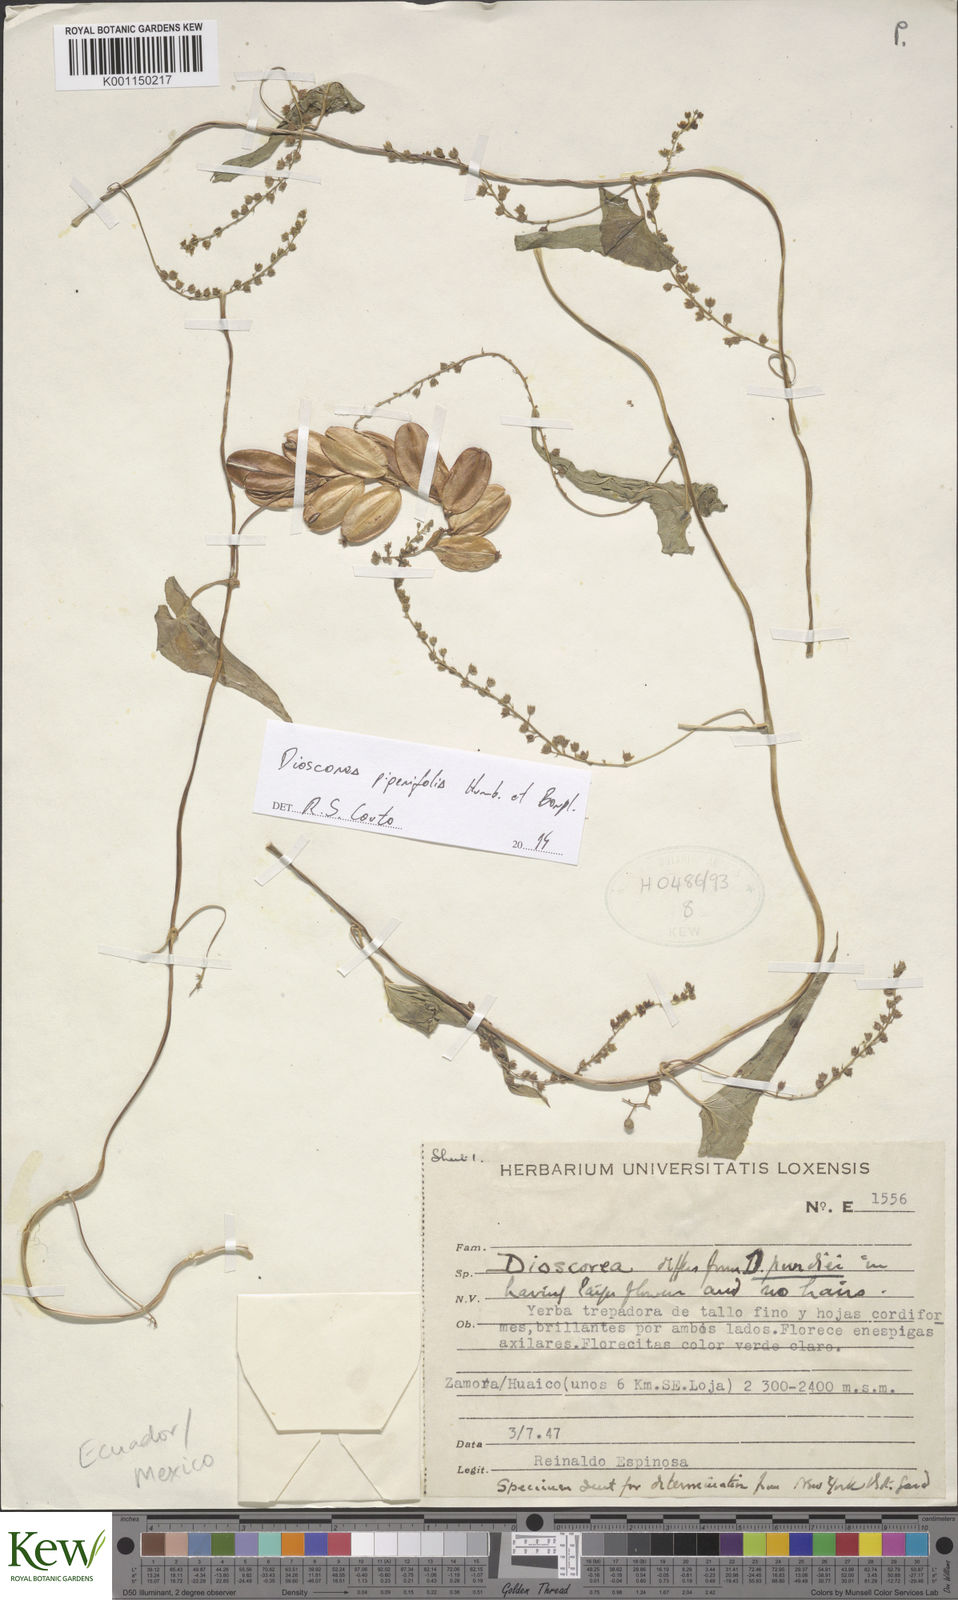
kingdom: Plantae
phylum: Tracheophyta
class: Liliopsida
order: Dioscoreales
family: Dioscoreaceae
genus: Dioscorea
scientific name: Dioscorea
